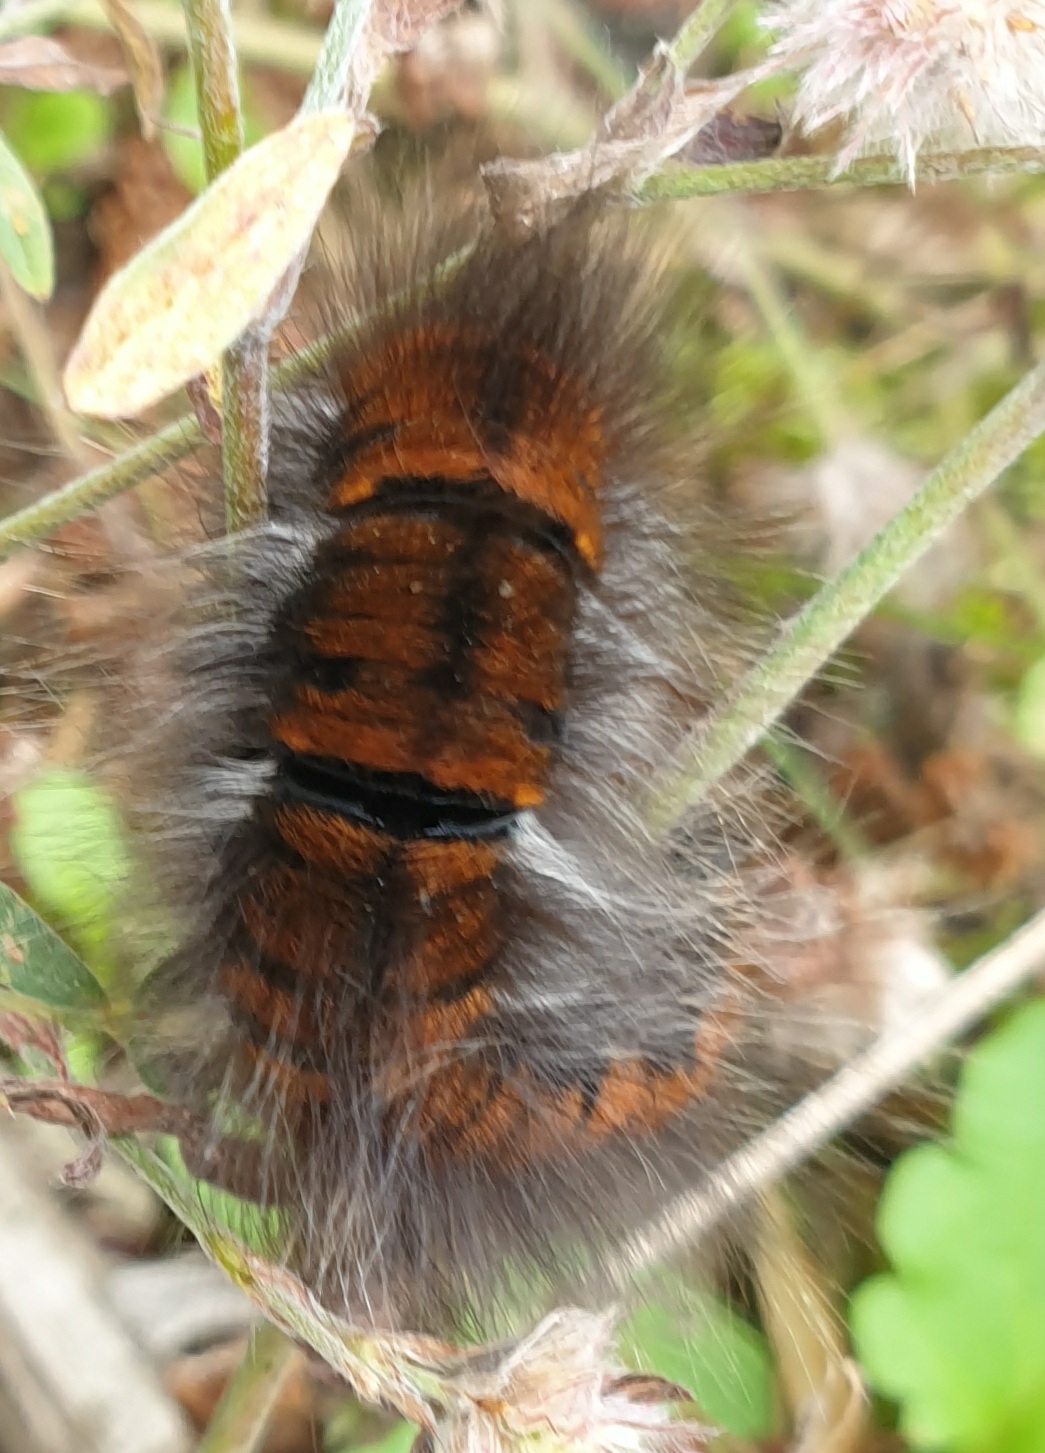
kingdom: Animalia
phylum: Arthropoda
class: Insecta
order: Lepidoptera
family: Lasiocampidae
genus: Macrothylacia
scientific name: Macrothylacia rubi
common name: Brombærspinder
